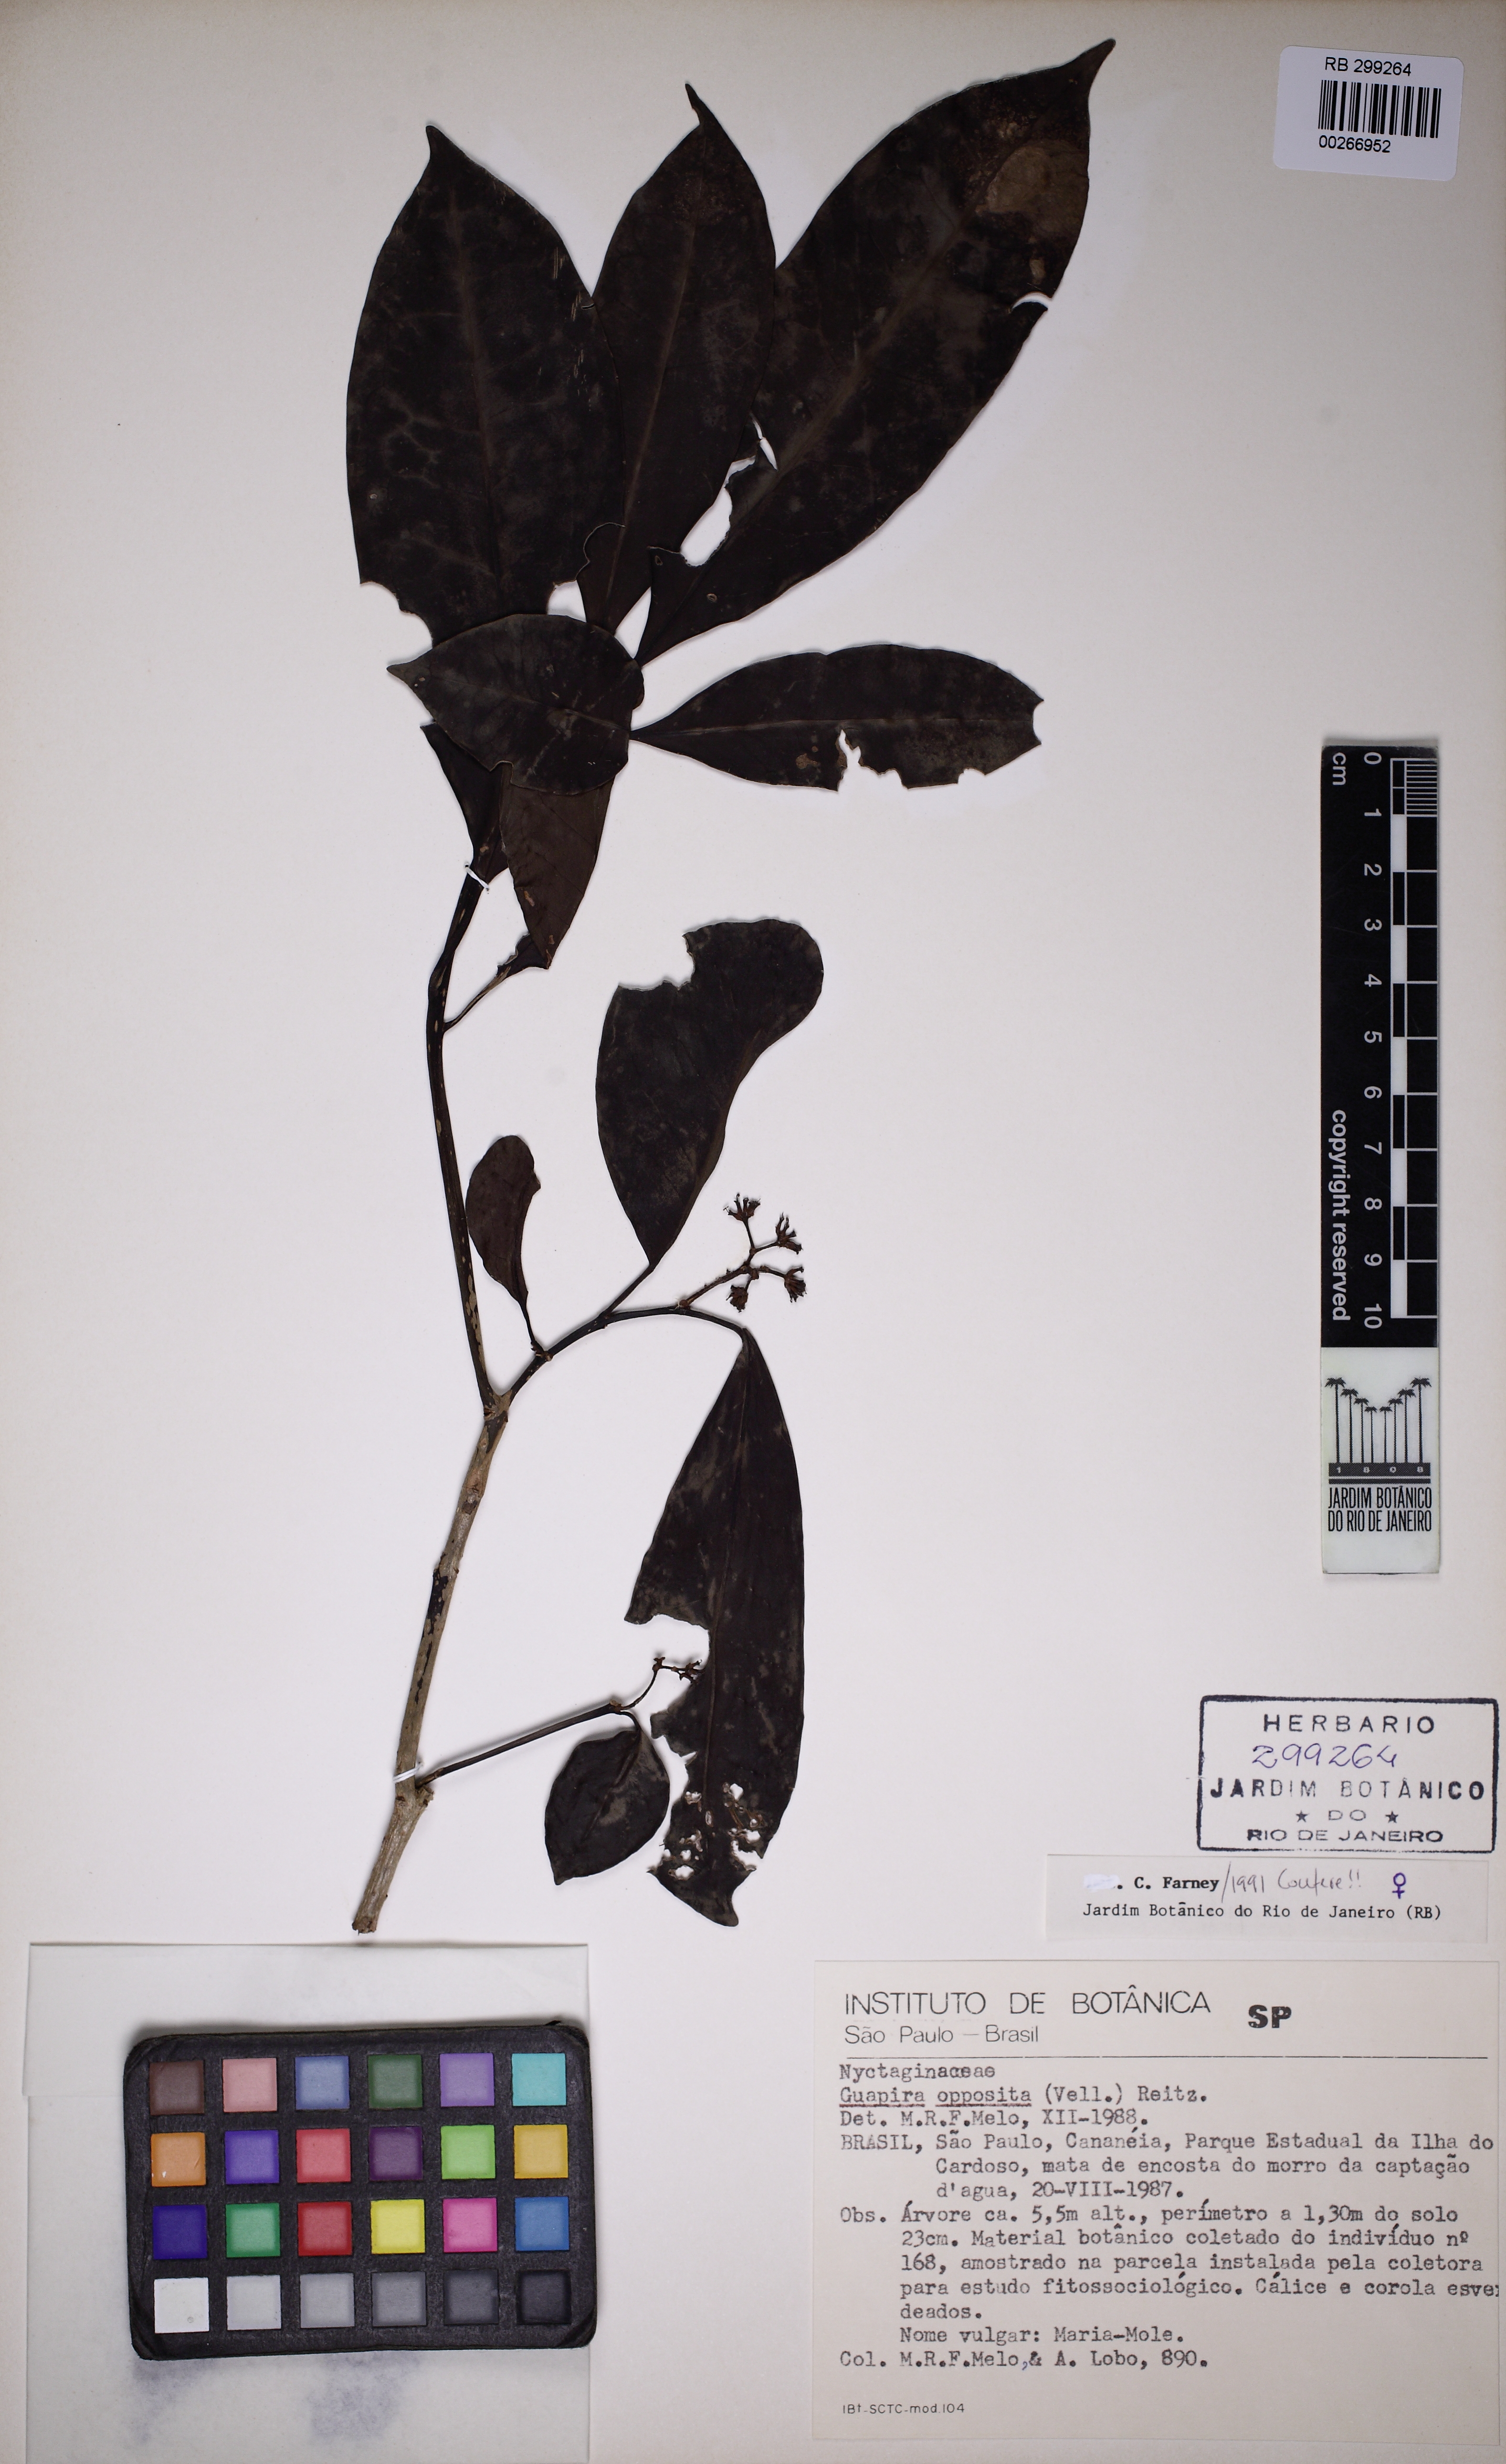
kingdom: Plantae
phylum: Tracheophyta
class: Magnoliopsida
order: Caryophyllales
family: Nyctaginaceae
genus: Guapira
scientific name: Guapira opposita
